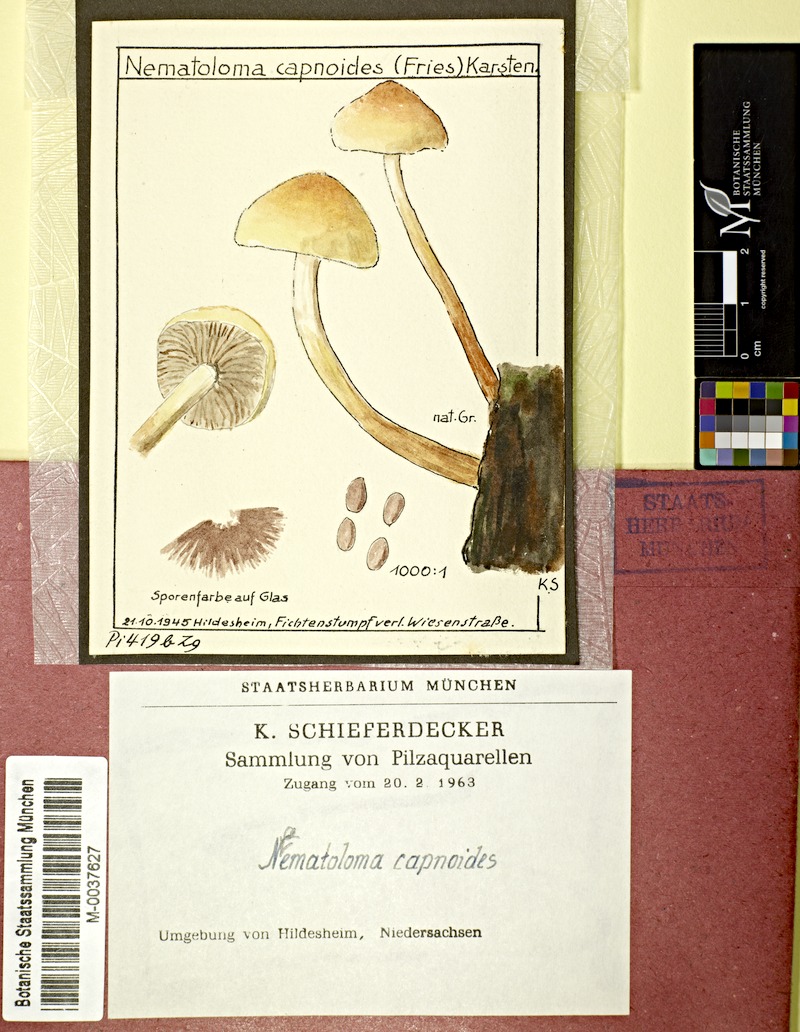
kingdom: Plantae
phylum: Tracheophyta
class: Pinopsida
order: Pinales
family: Pinaceae
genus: Picea
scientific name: Picea
